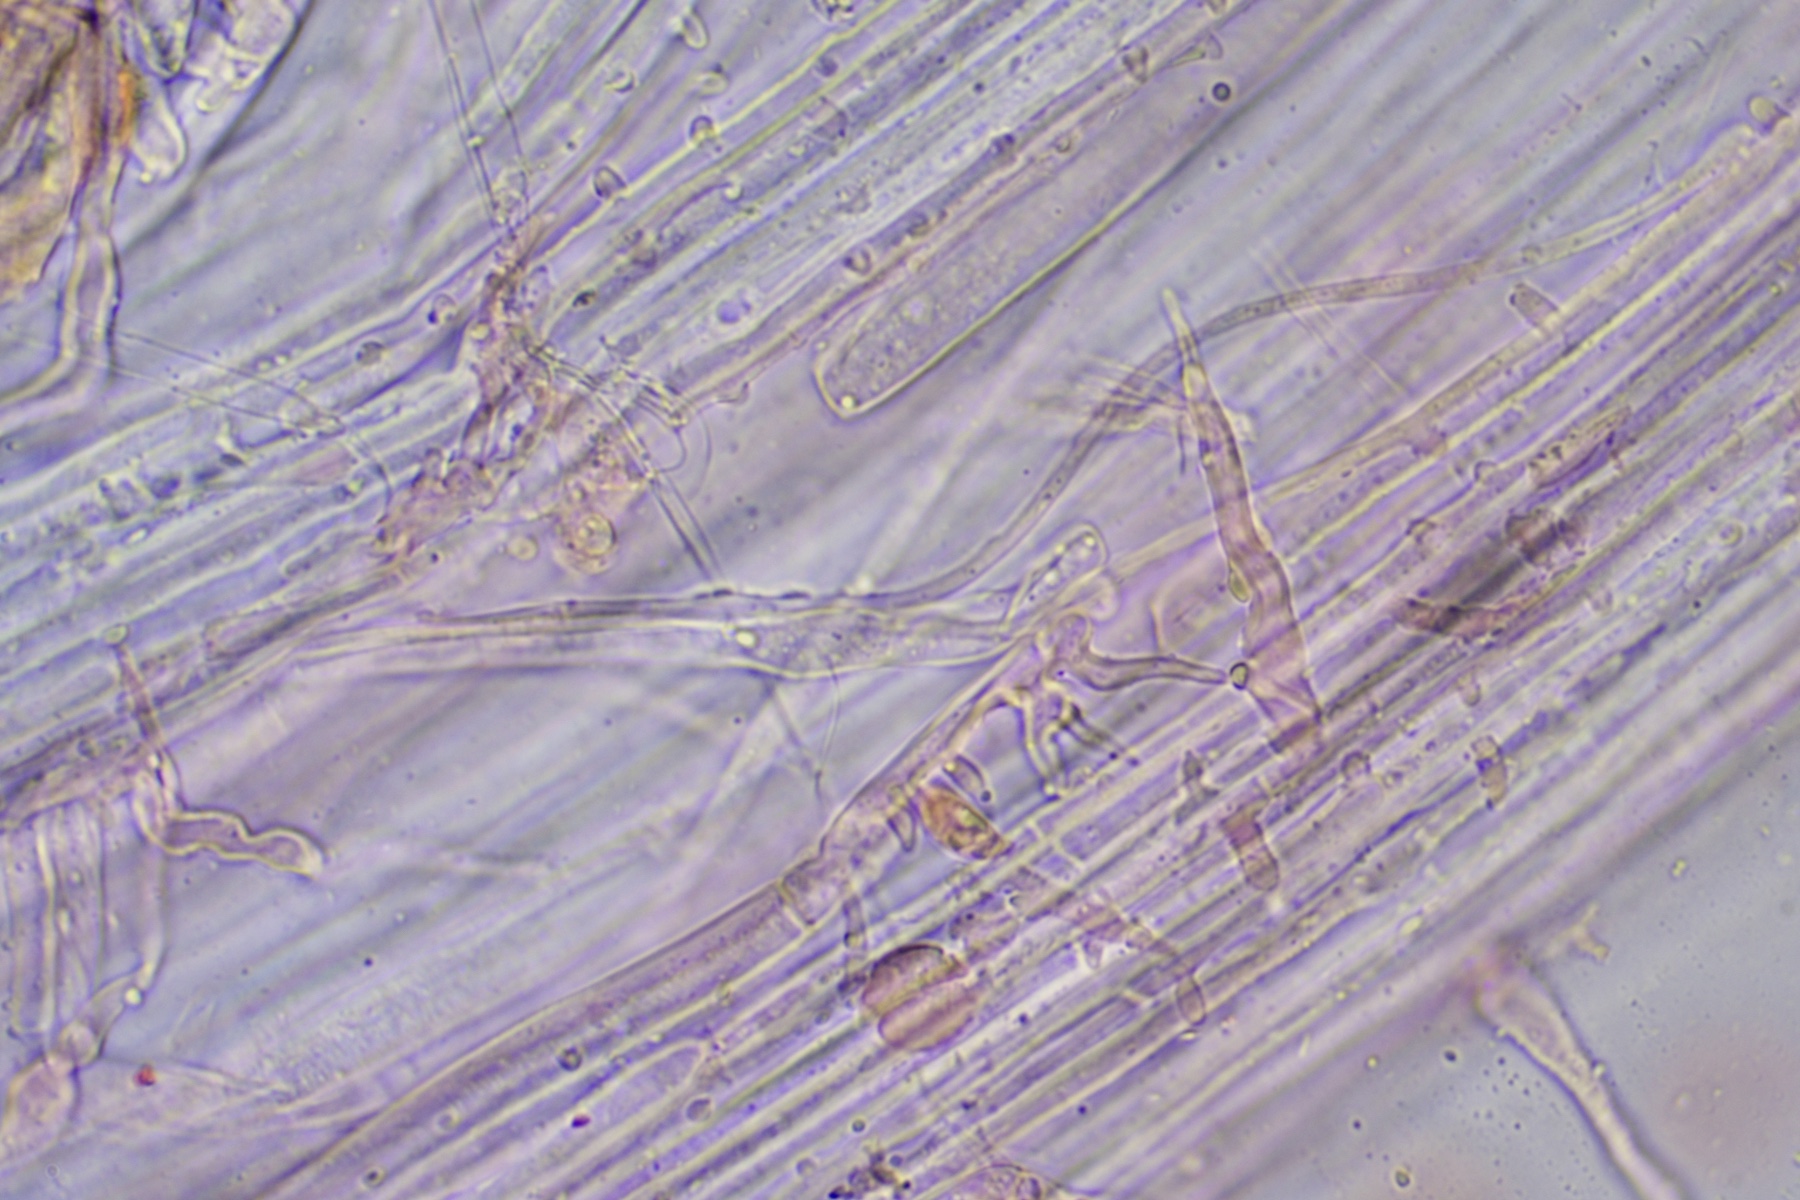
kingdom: Fungi
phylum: Basidiomycota
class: Agaricomycetes
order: Agaricales
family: Mycenaceae
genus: Hemimycena
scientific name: Hemimycena subtilis
